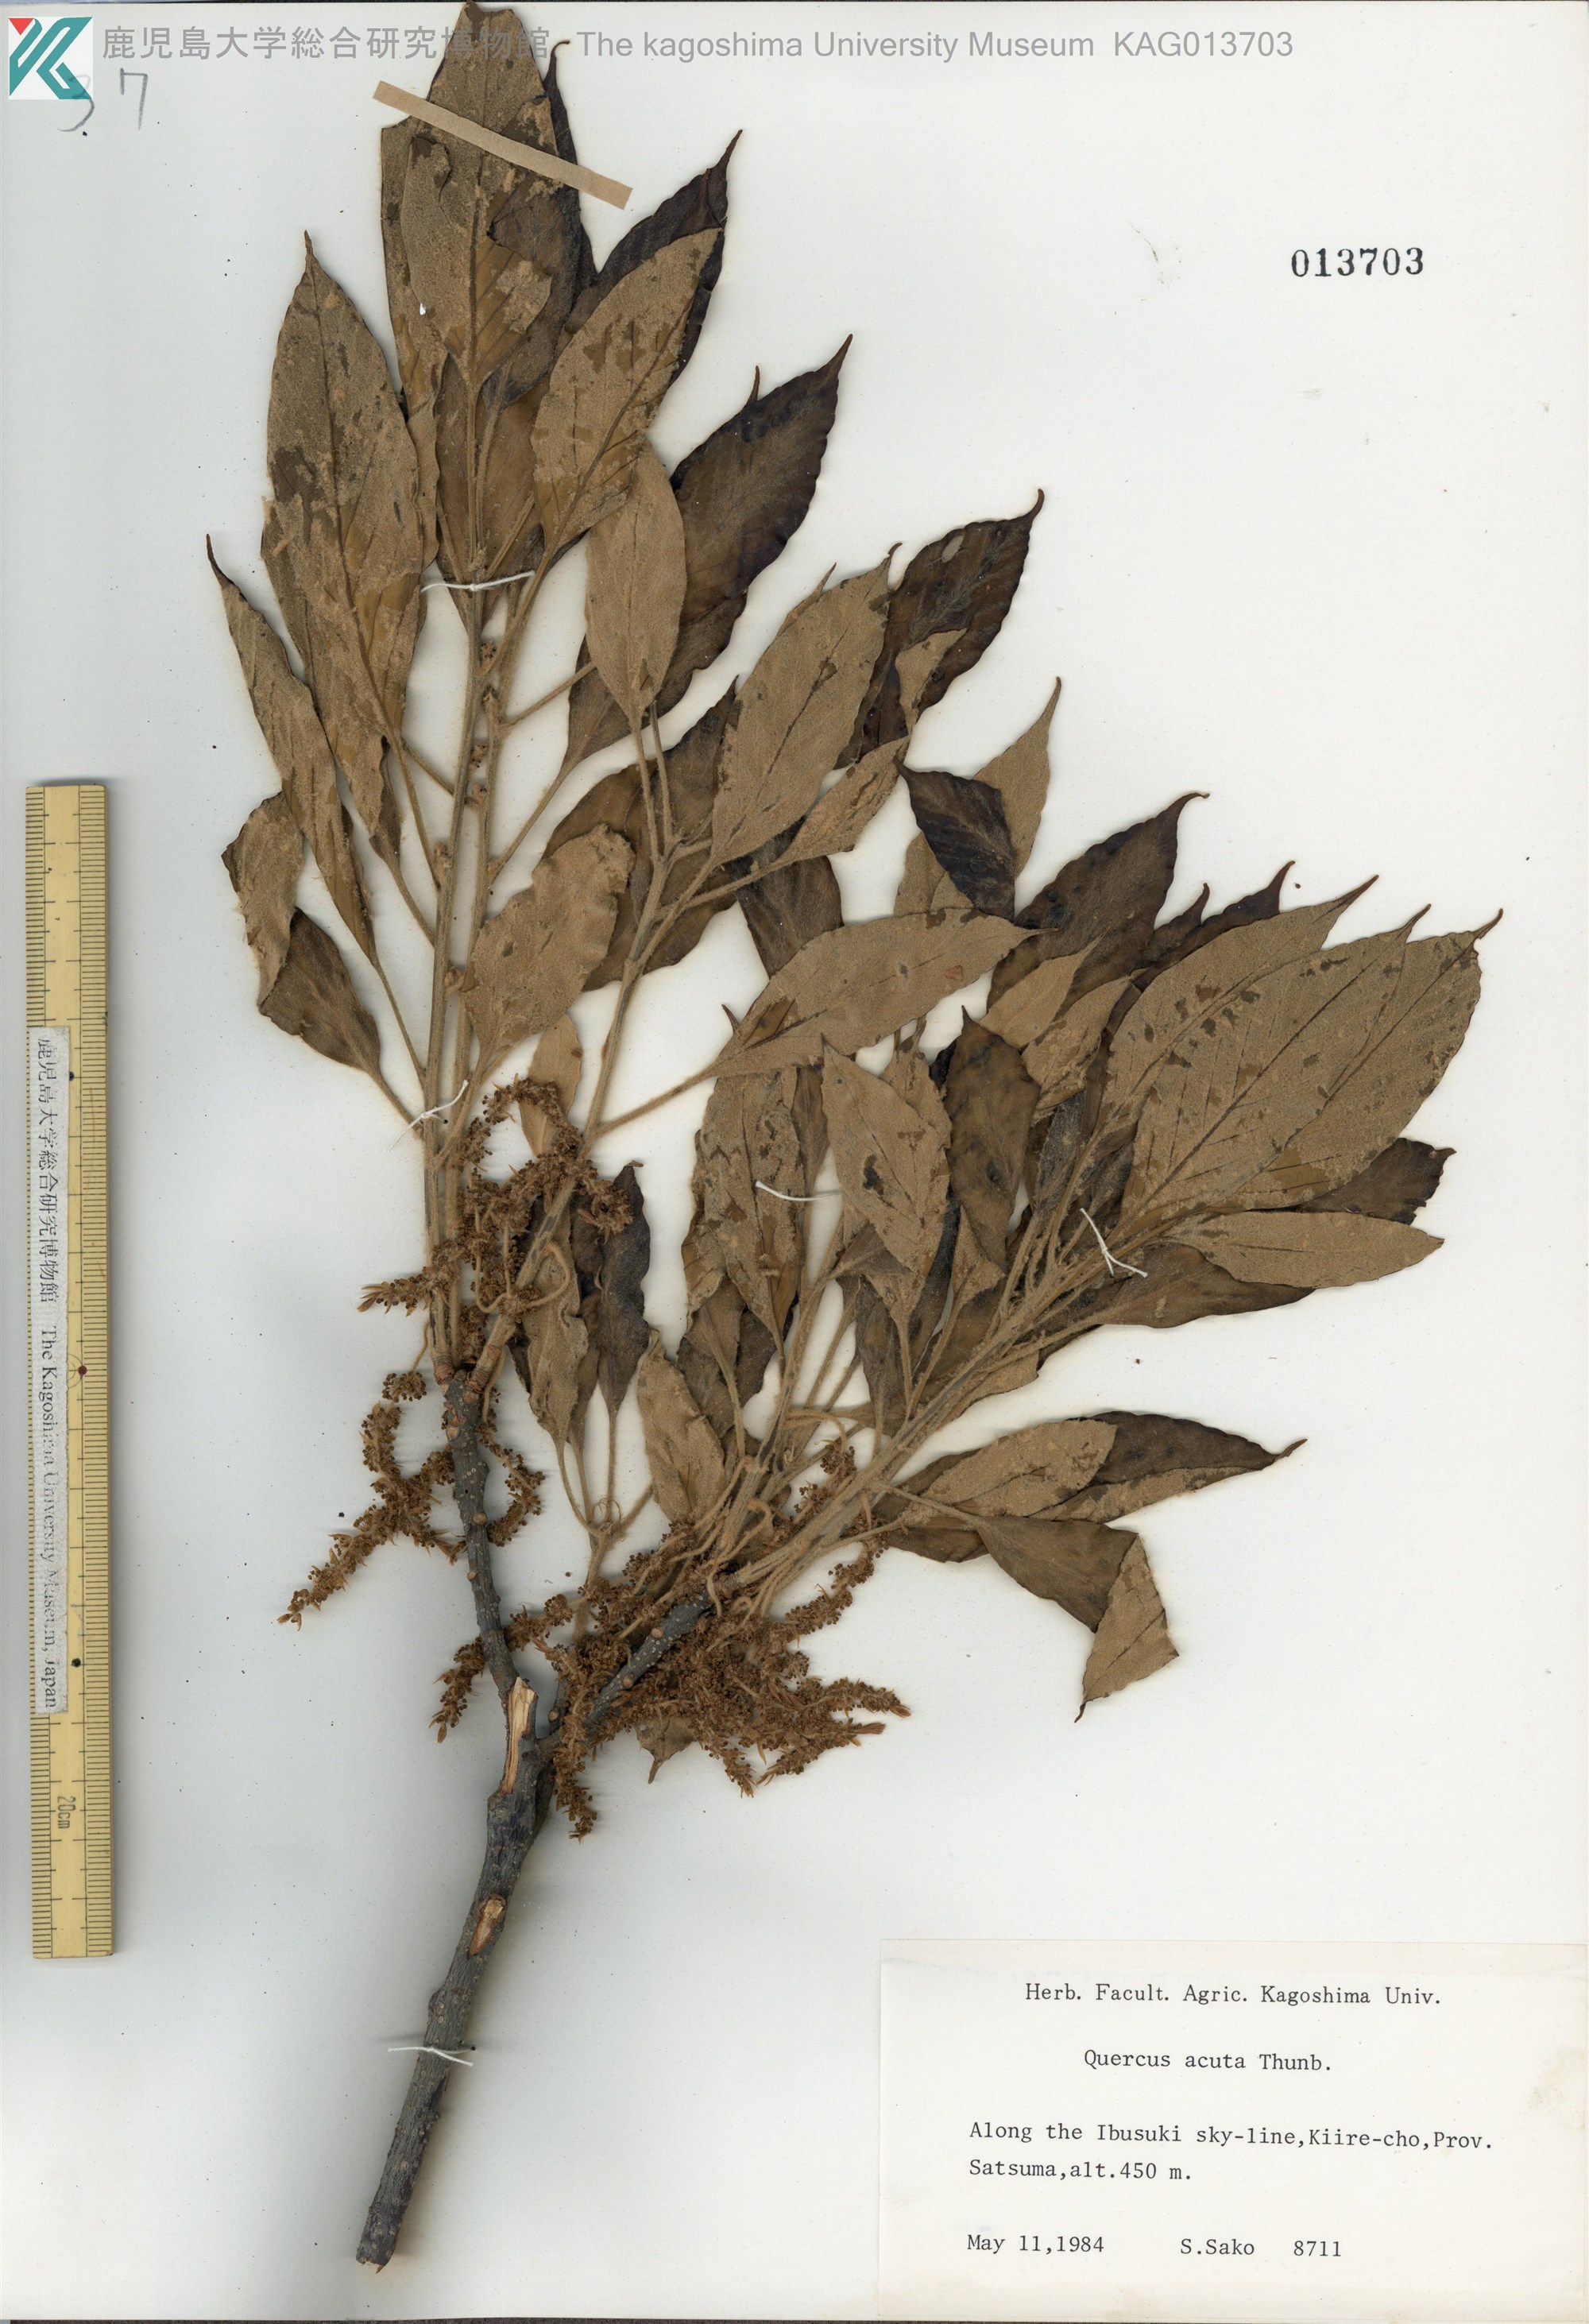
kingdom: Plantae
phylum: Tracheophyta
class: Magnoliopsida
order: Fagales
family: Fagaceae
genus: Quercus
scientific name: Quercus acuta
